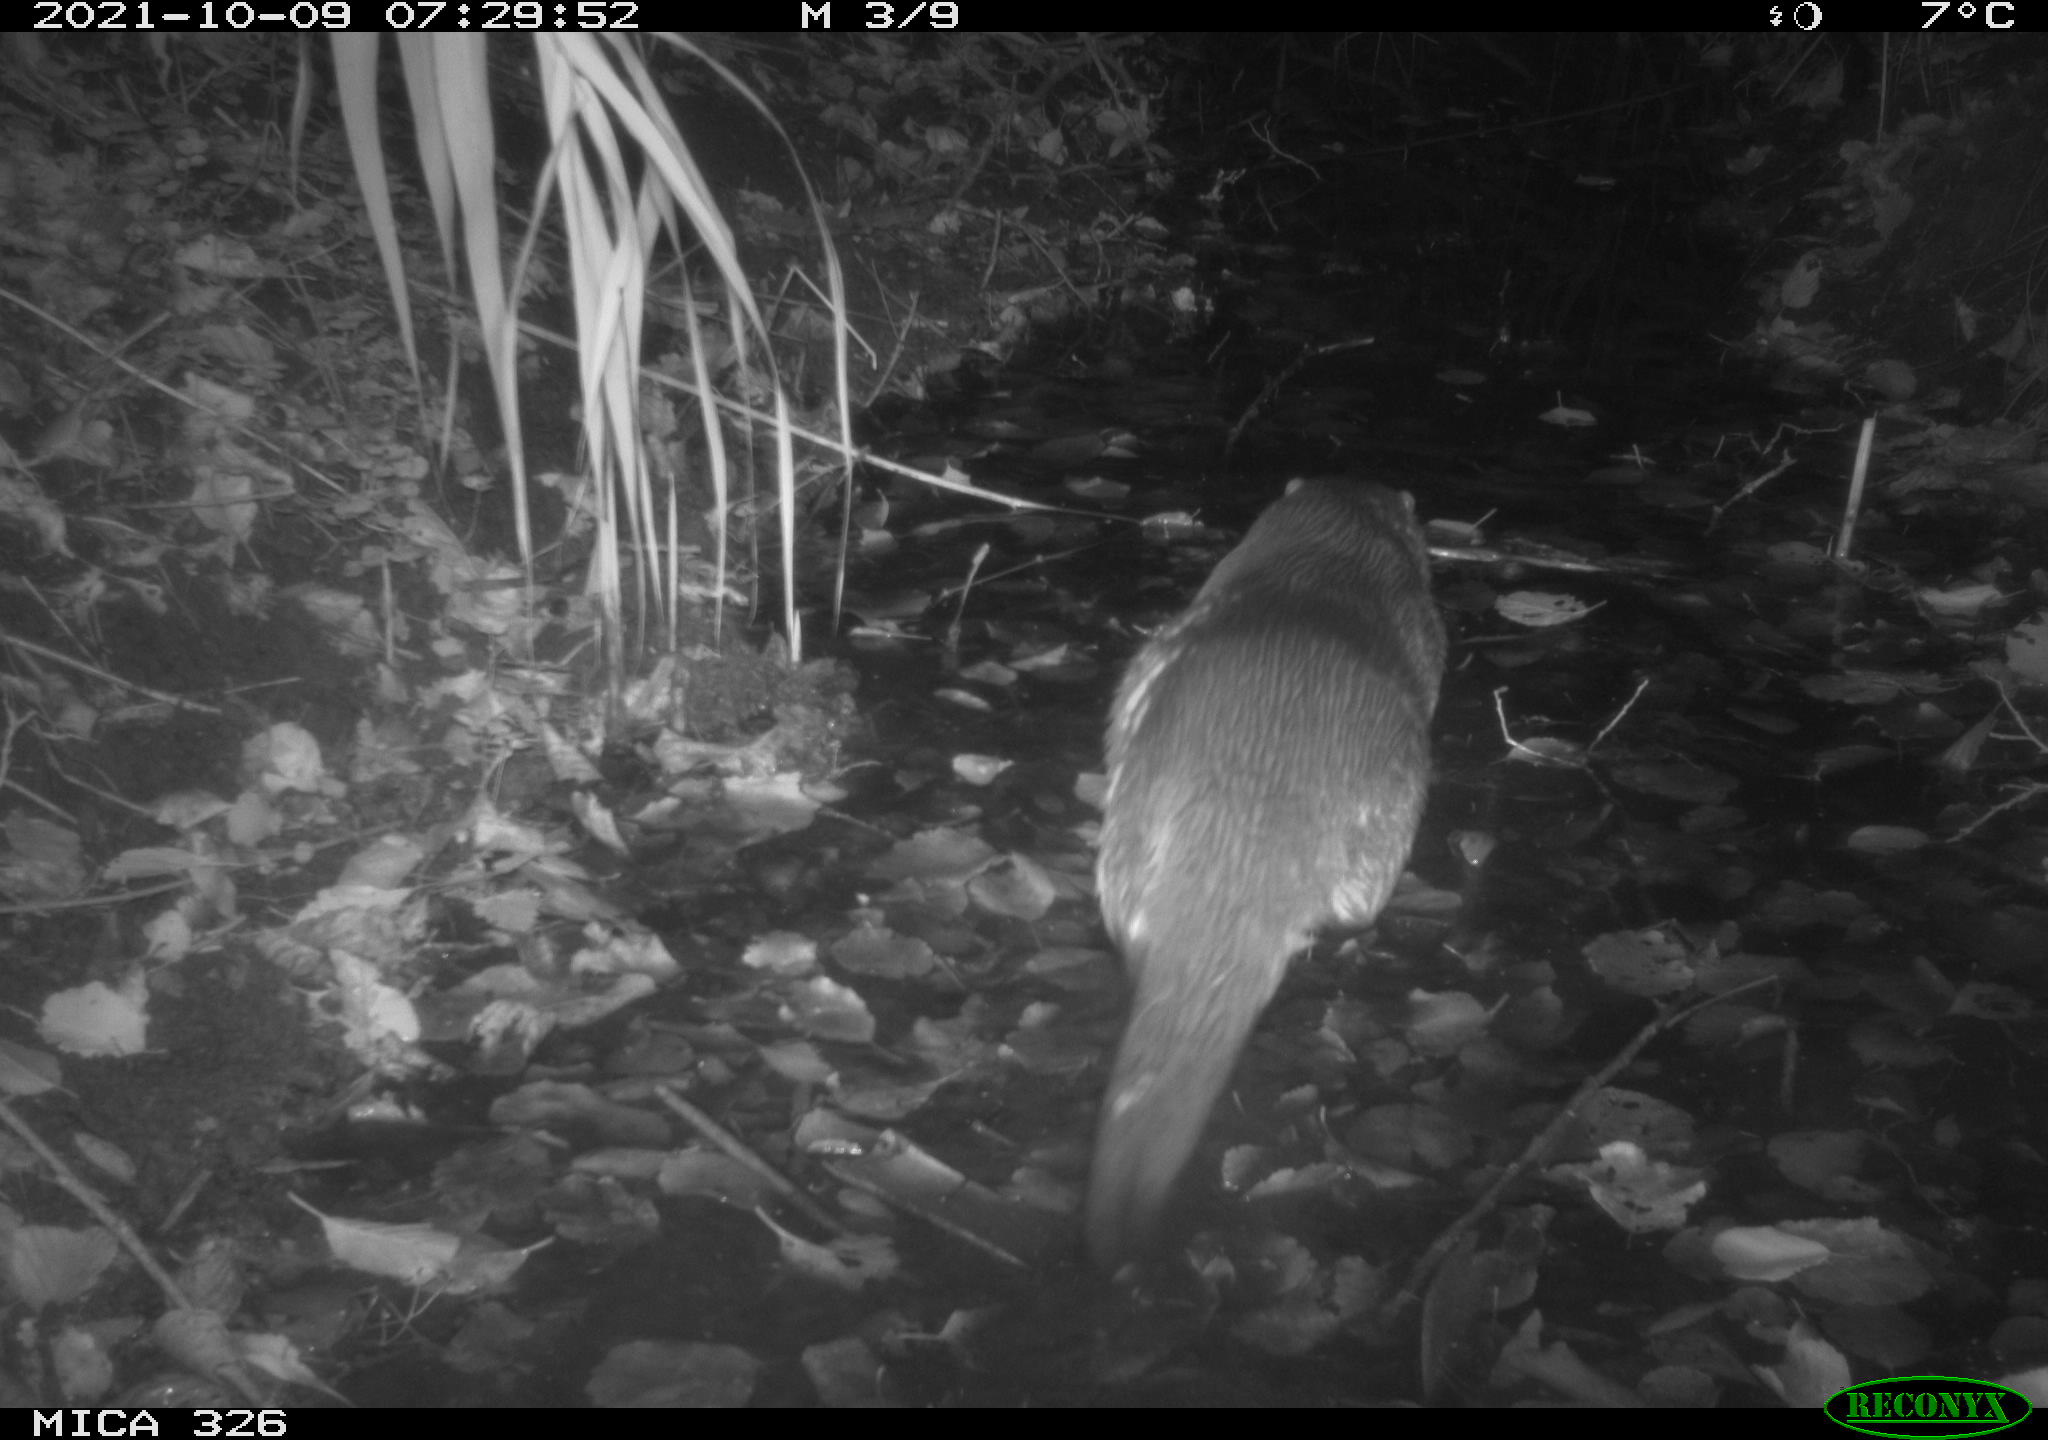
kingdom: Animalia
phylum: Chordata
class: Mammalia
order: Carnivora
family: Mustelidae
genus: Lutra
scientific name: Lutra lutra
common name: European otter
